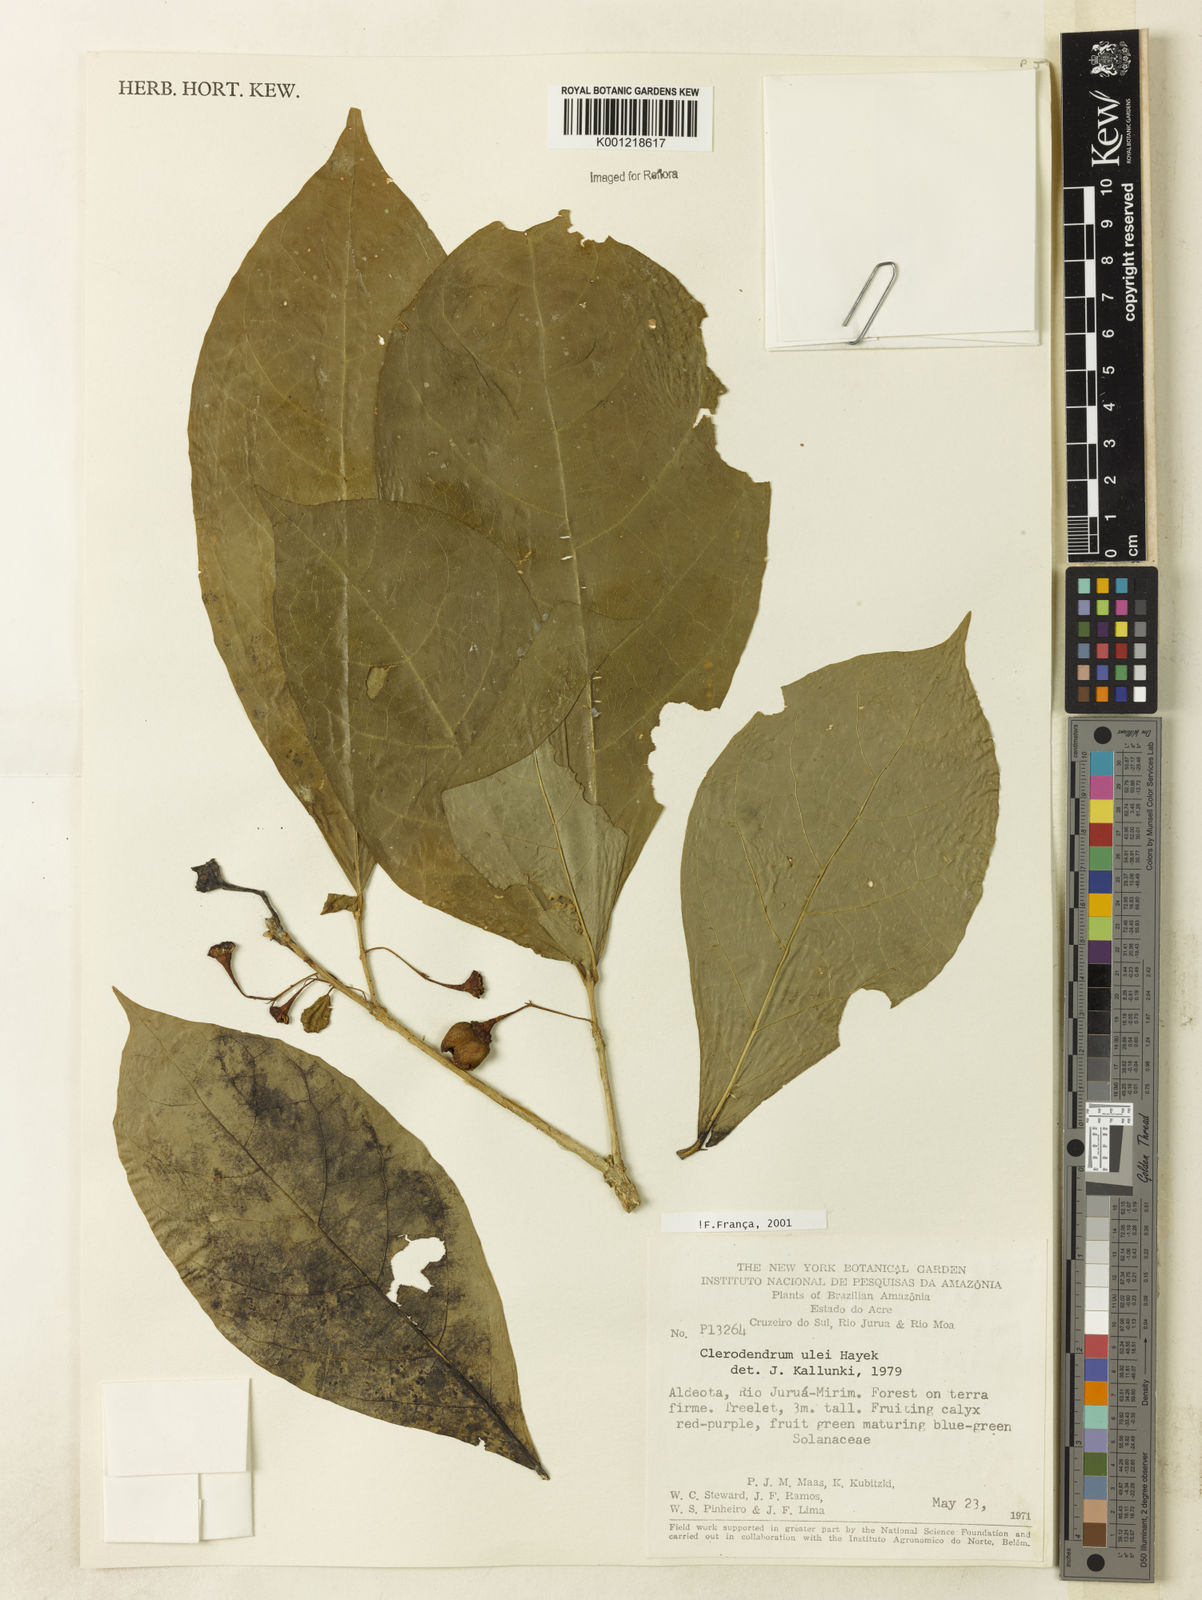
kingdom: Plantae
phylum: Tracheophyta
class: Magnoliopsida
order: Lamiales
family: Lamiaceae
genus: Aegiphila
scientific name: Aegiphila ulei
